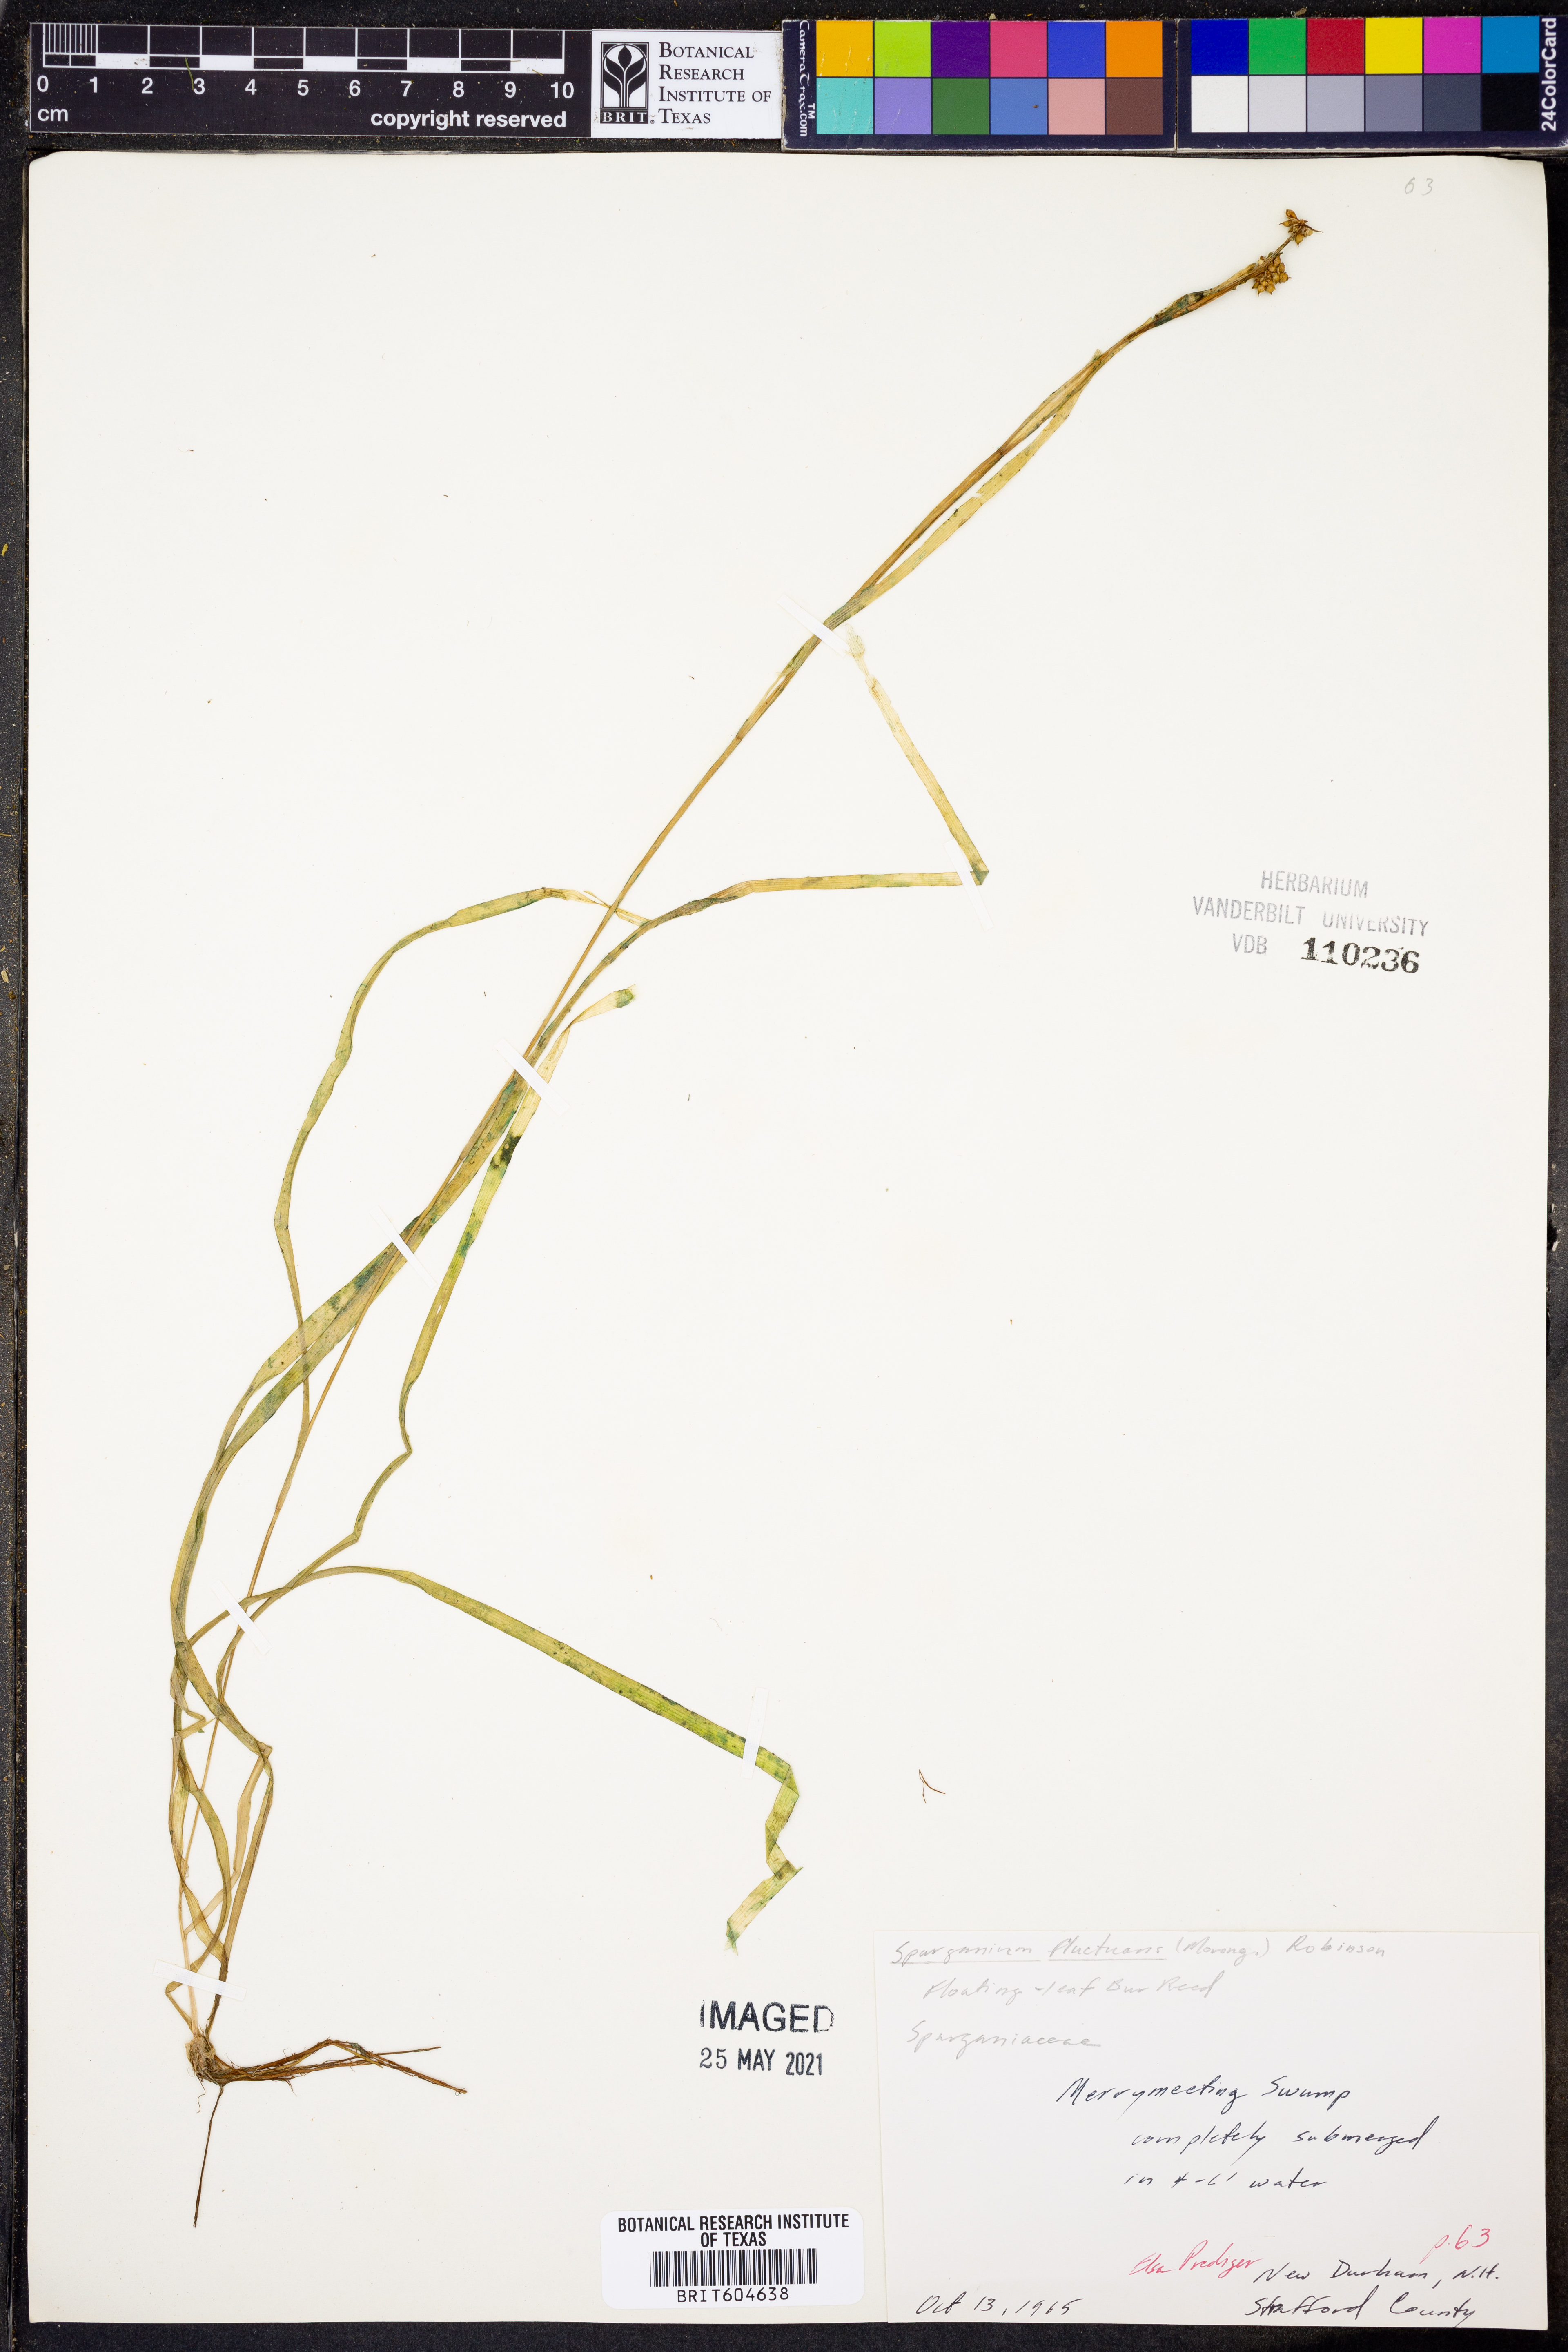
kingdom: Plantae
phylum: Tracheophyta
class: Liliopsida
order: Poales
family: Typhaceae
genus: Sparganium
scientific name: Sparganium fluctuans
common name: Floating burreed
